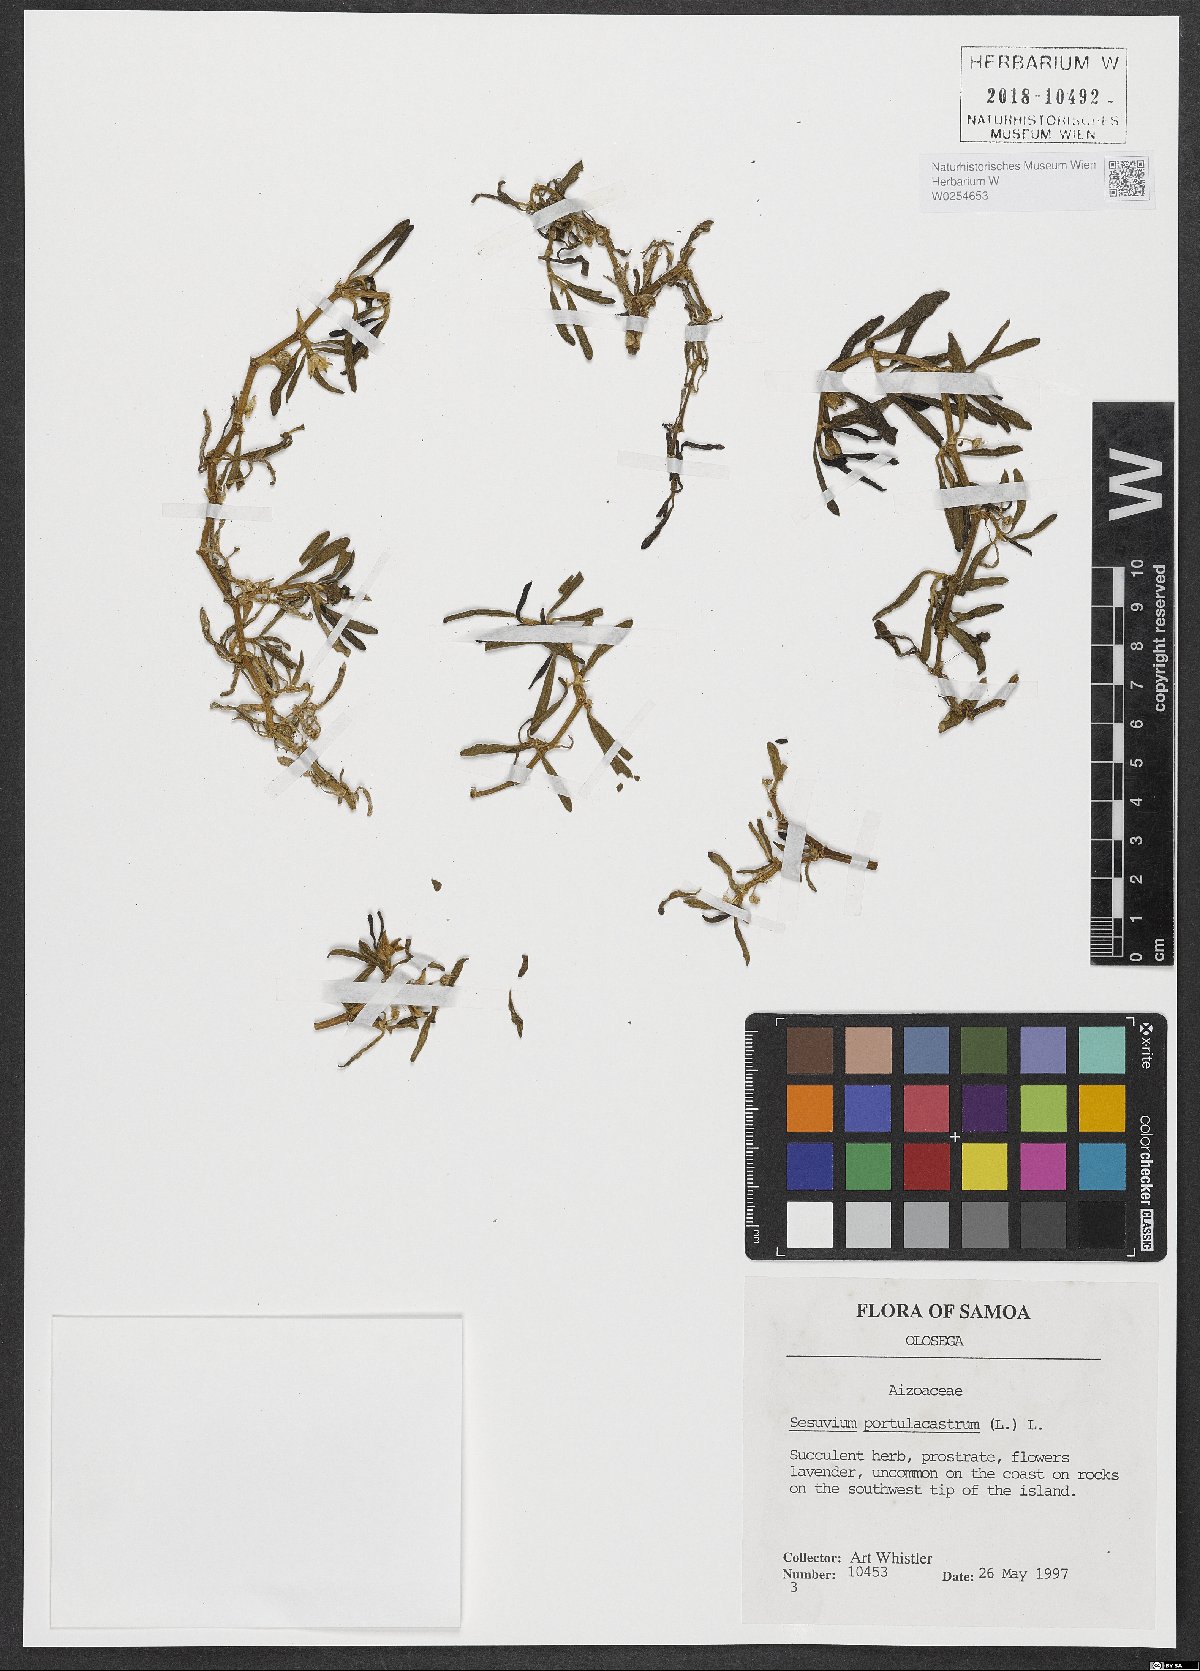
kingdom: Plantae
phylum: Tracheophyta
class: Magnoliopsida
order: Caryophyllales
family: Aizoaceae
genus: Sesuvium
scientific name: Sesuvium portulacastrum
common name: Sea-purslane
